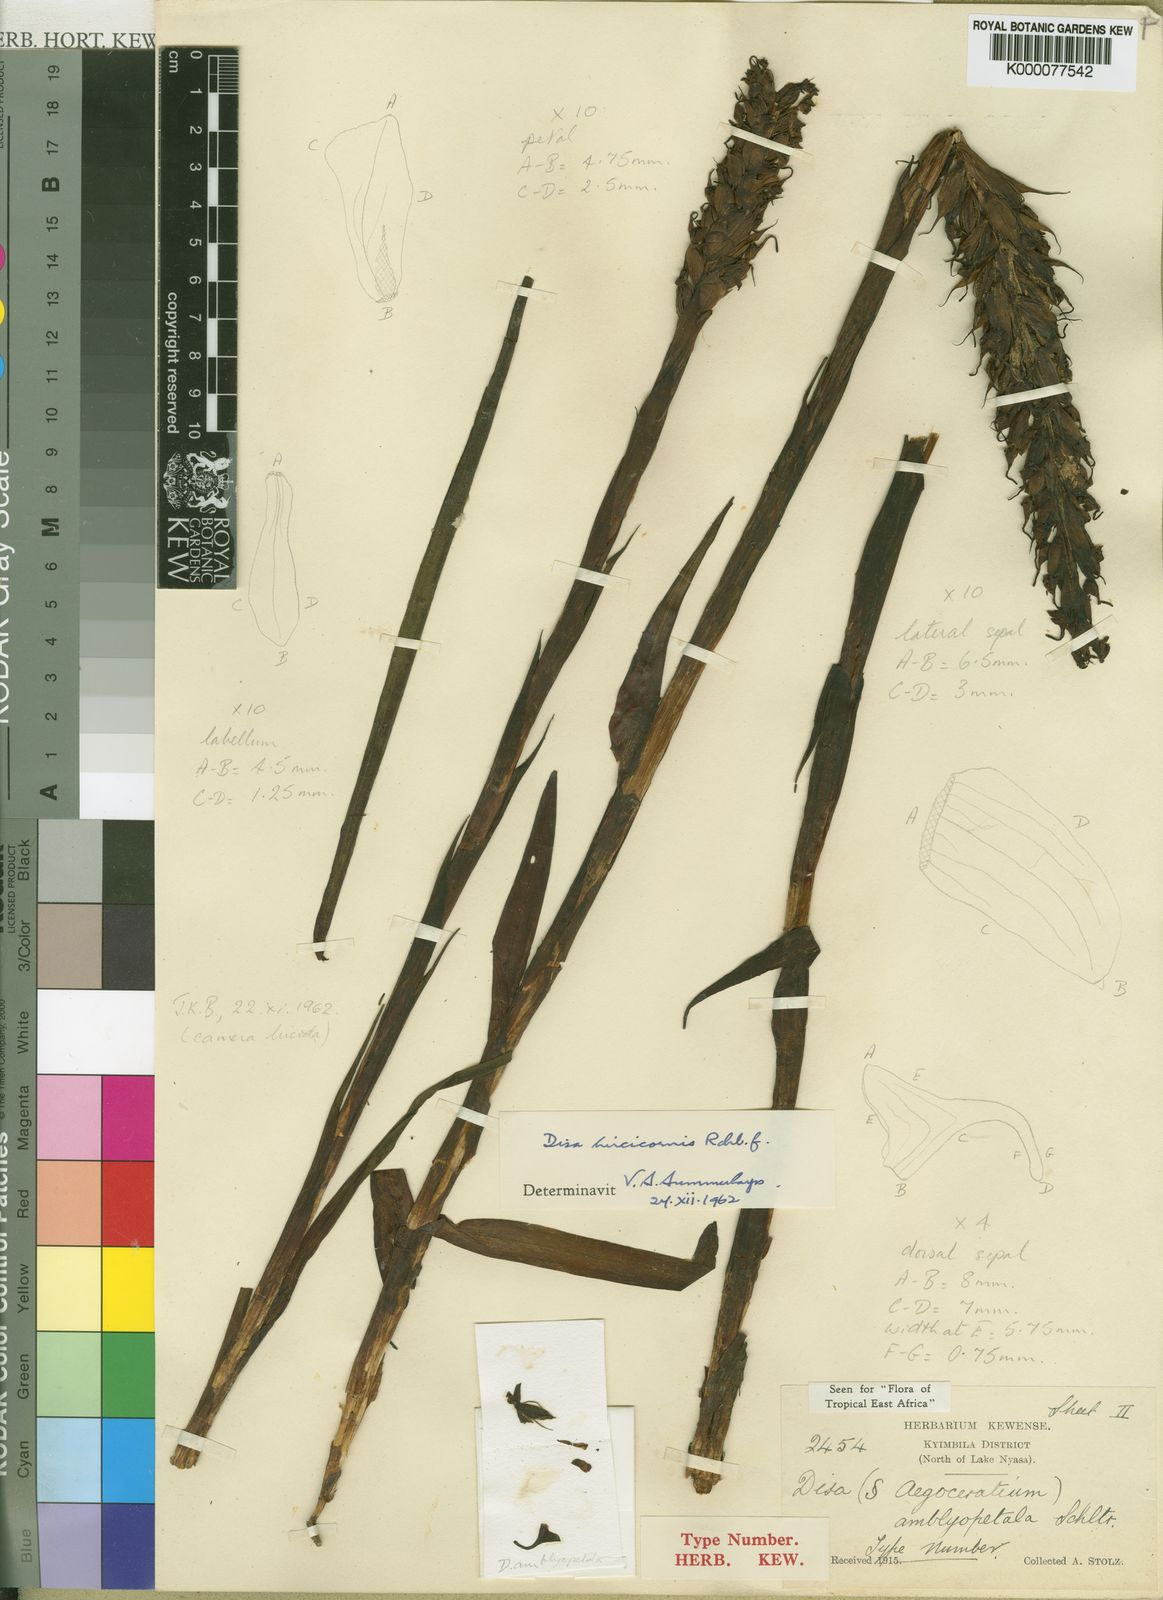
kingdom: Plantae
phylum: Tracheophyta
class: Liliopsida
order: Asparagales
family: Orchidaceae
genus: Disa
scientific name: Disa hircicornis
